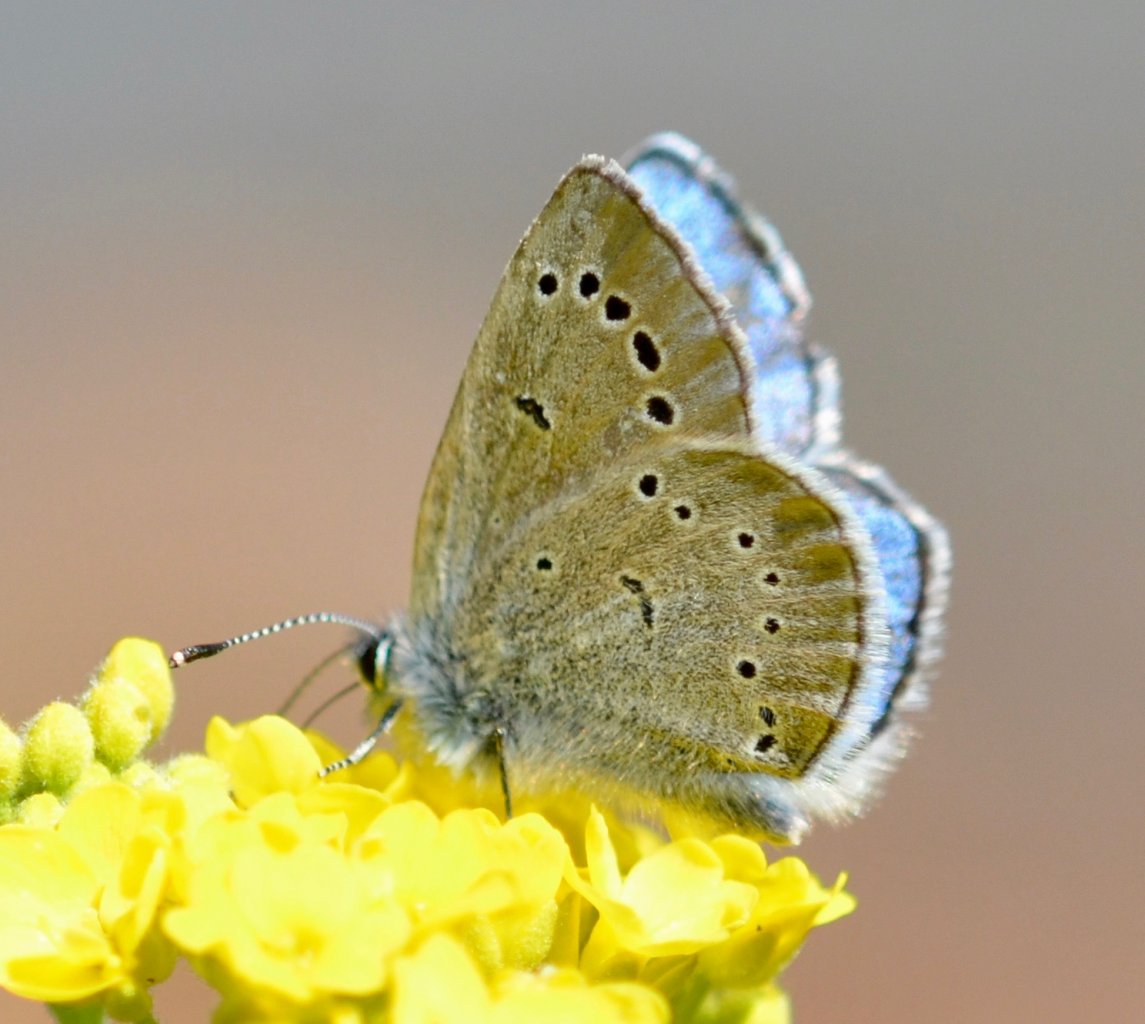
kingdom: Animalia
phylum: Arthropoda
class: Insecta
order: Lepidoptera
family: Lycaenidae
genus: Glaucopsyche
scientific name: Glaucopsyche lygdamus
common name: Silvery Blue
